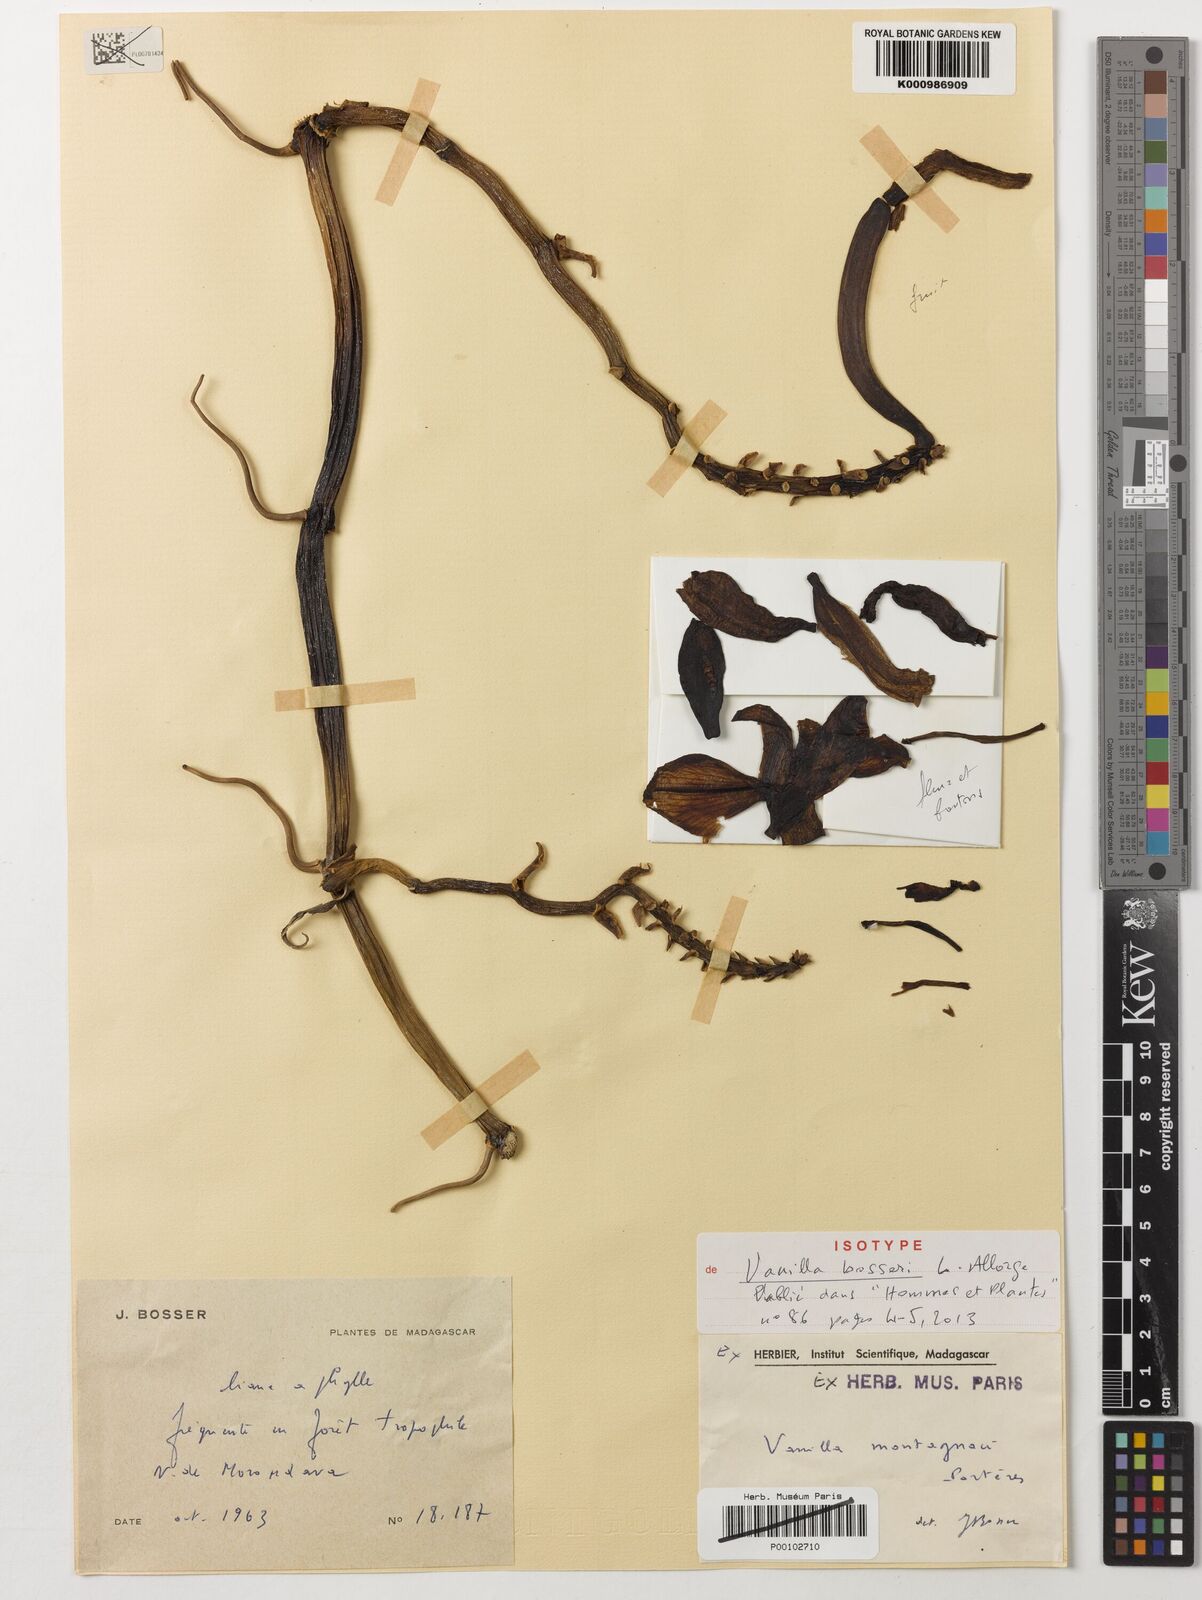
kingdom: Plantae
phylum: Tracheophyta
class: Liliopsida
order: Asparagales
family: Orchidaceae
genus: Vanilla
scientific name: Vanilla
